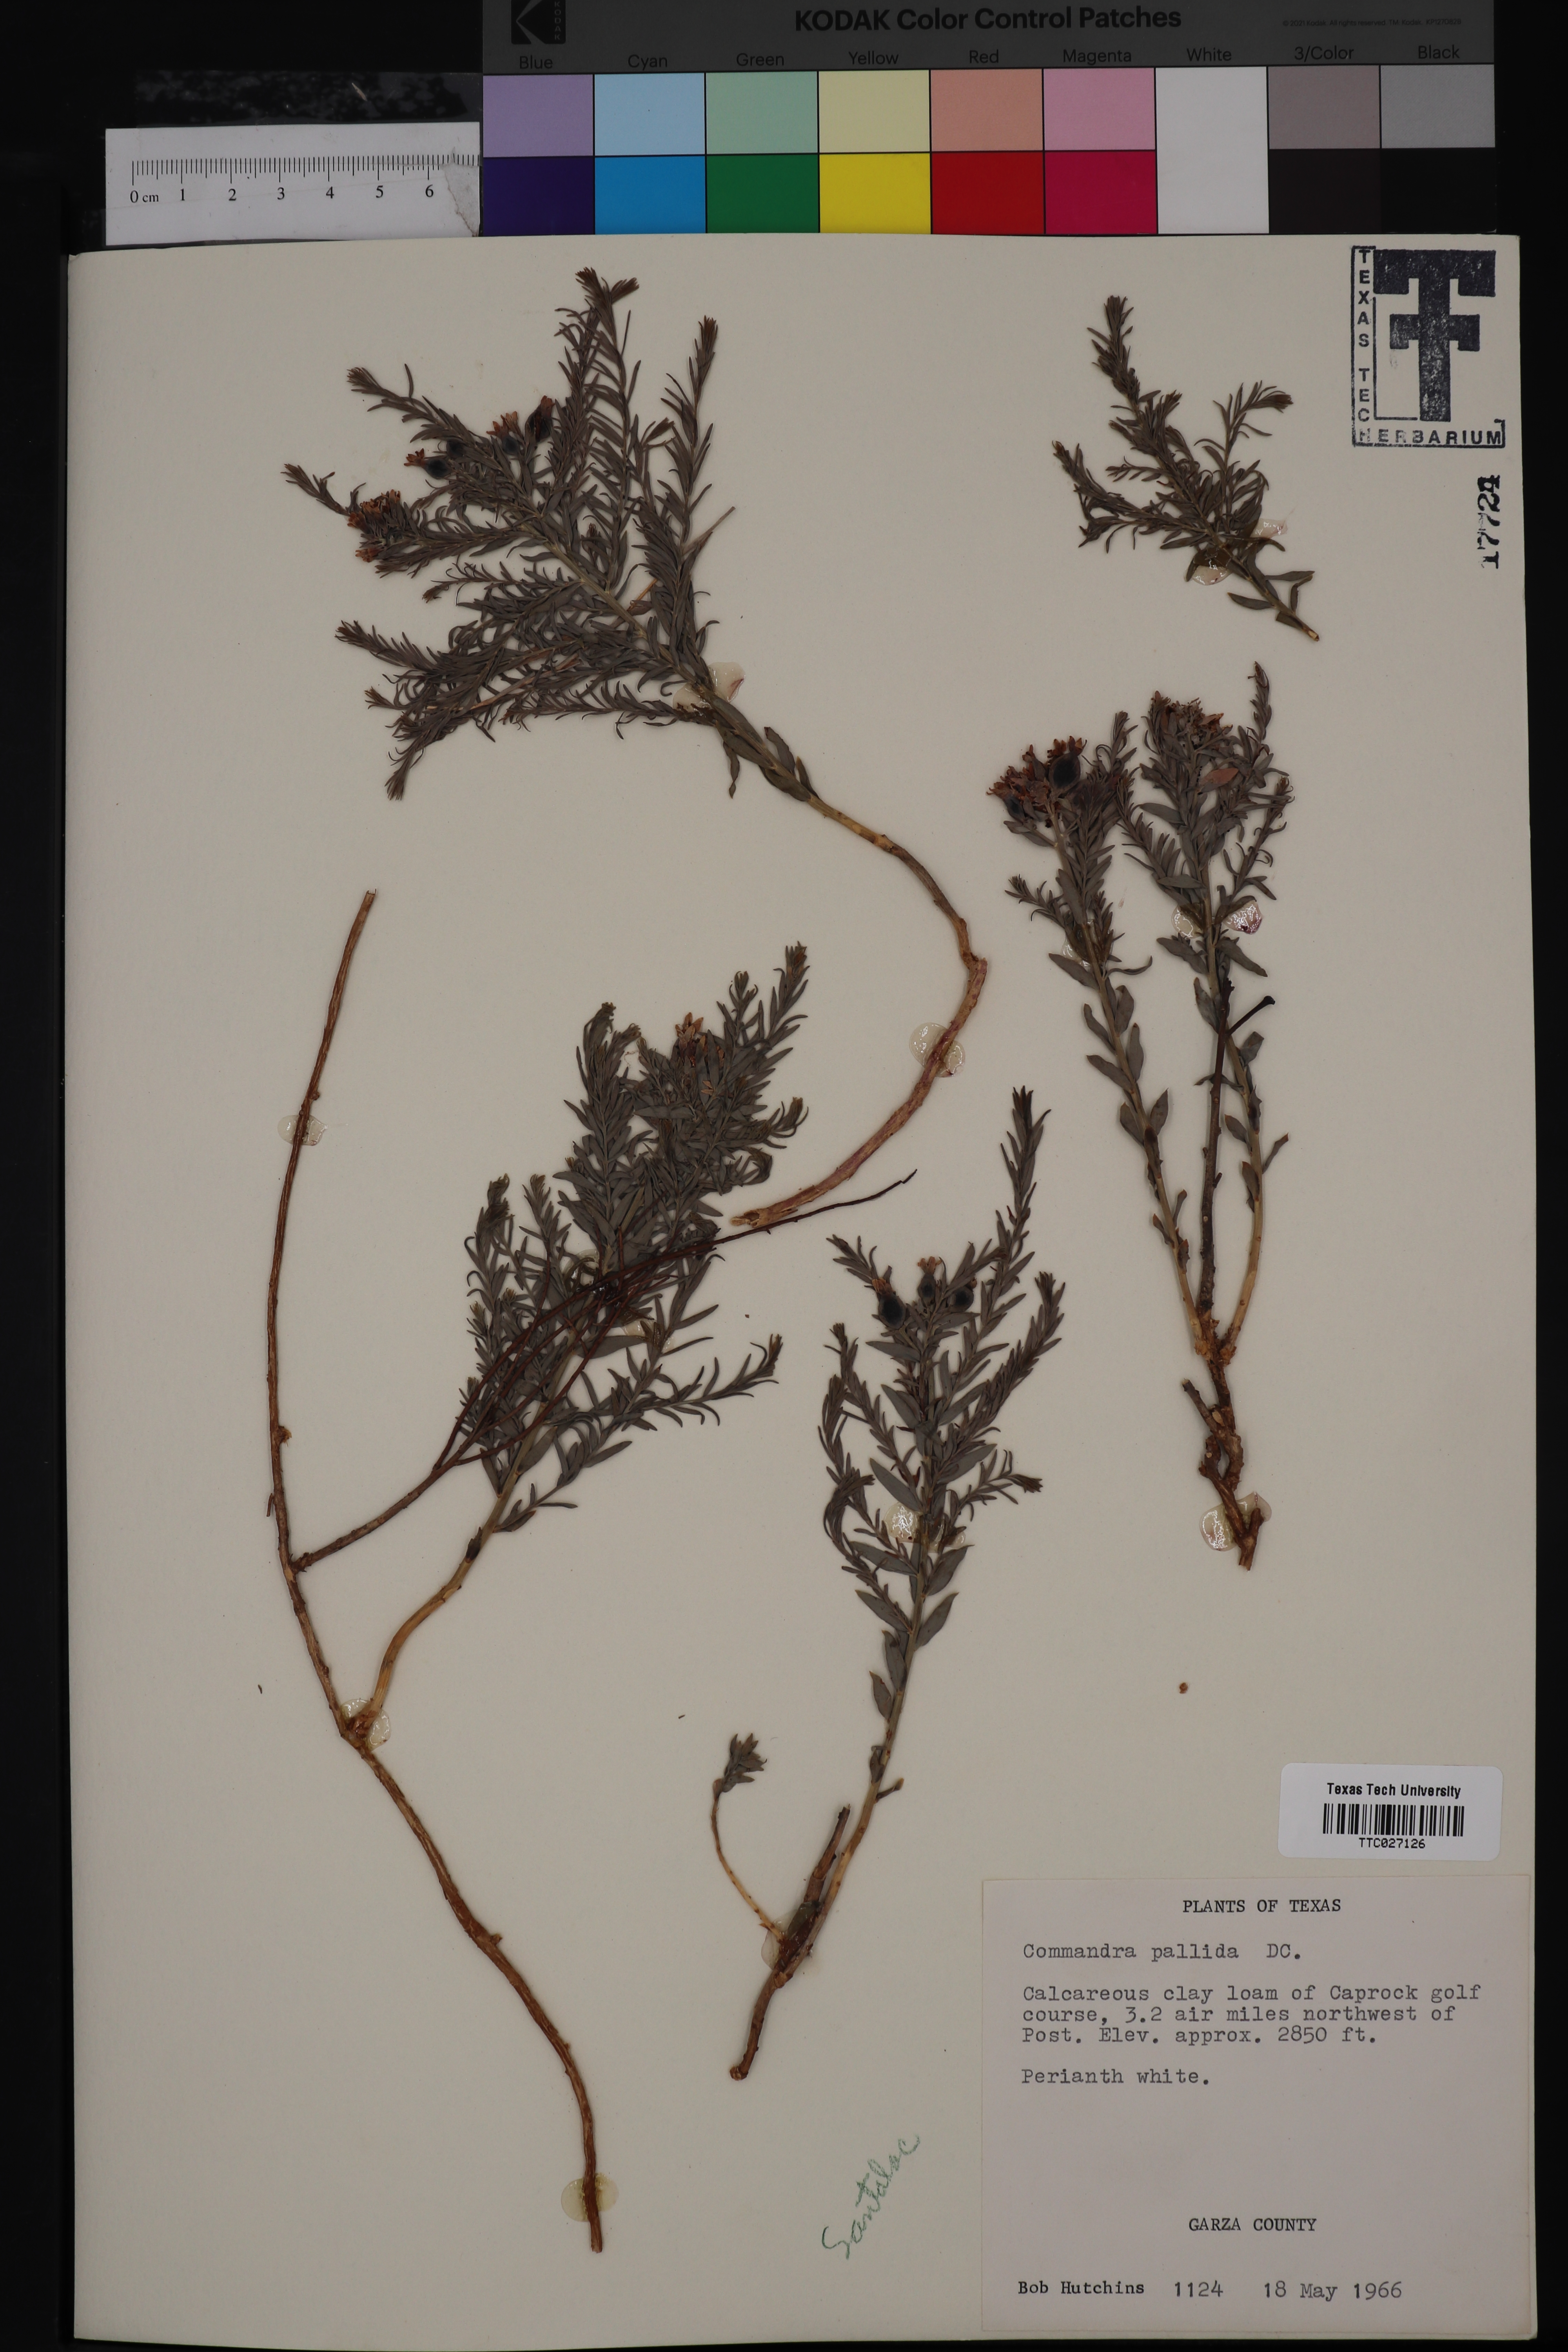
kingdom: Plantae
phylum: Tracheophyta
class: Magnoliopsida
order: Santalales
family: Comandraceae
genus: Comandra
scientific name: Comandra umbellata
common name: Bastard toadflax
